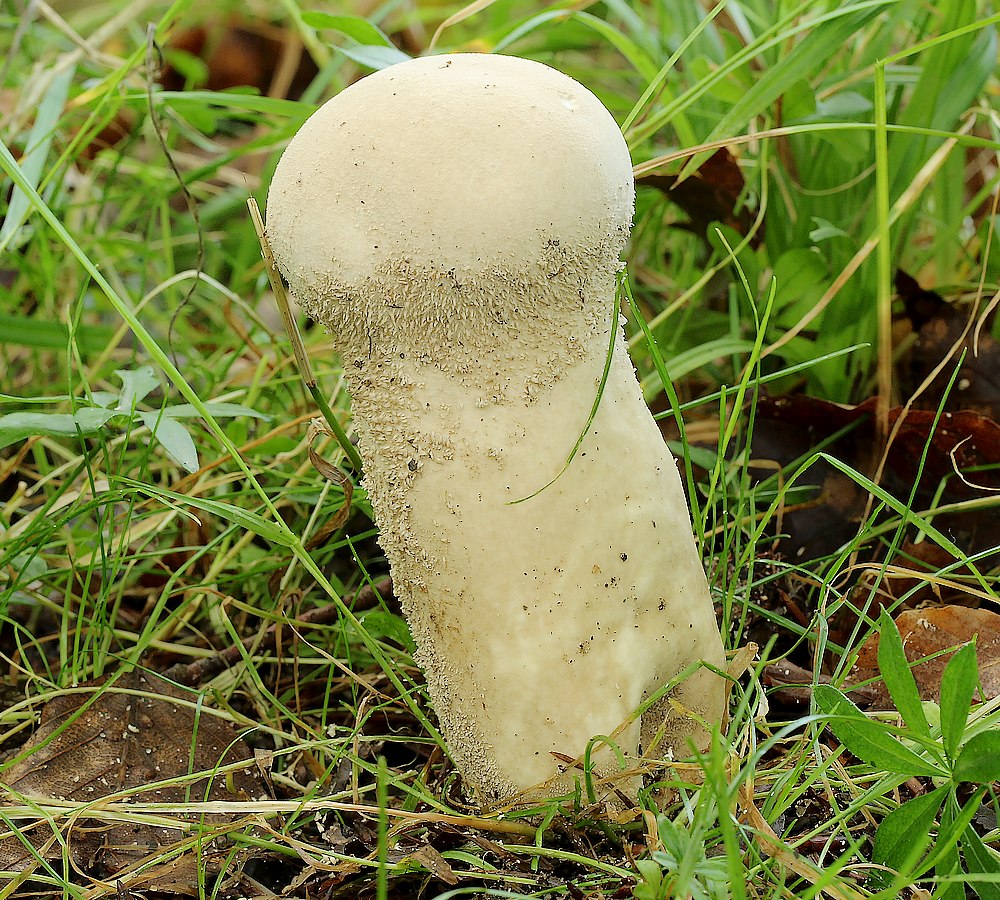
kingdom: Fungi
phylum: Basidiomycota
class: Agaricomycetes
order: Agaricales
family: Lycoperdaceae
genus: Lycoperdon
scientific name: Lycoperdon excipuliforme
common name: højstokket støvbold
